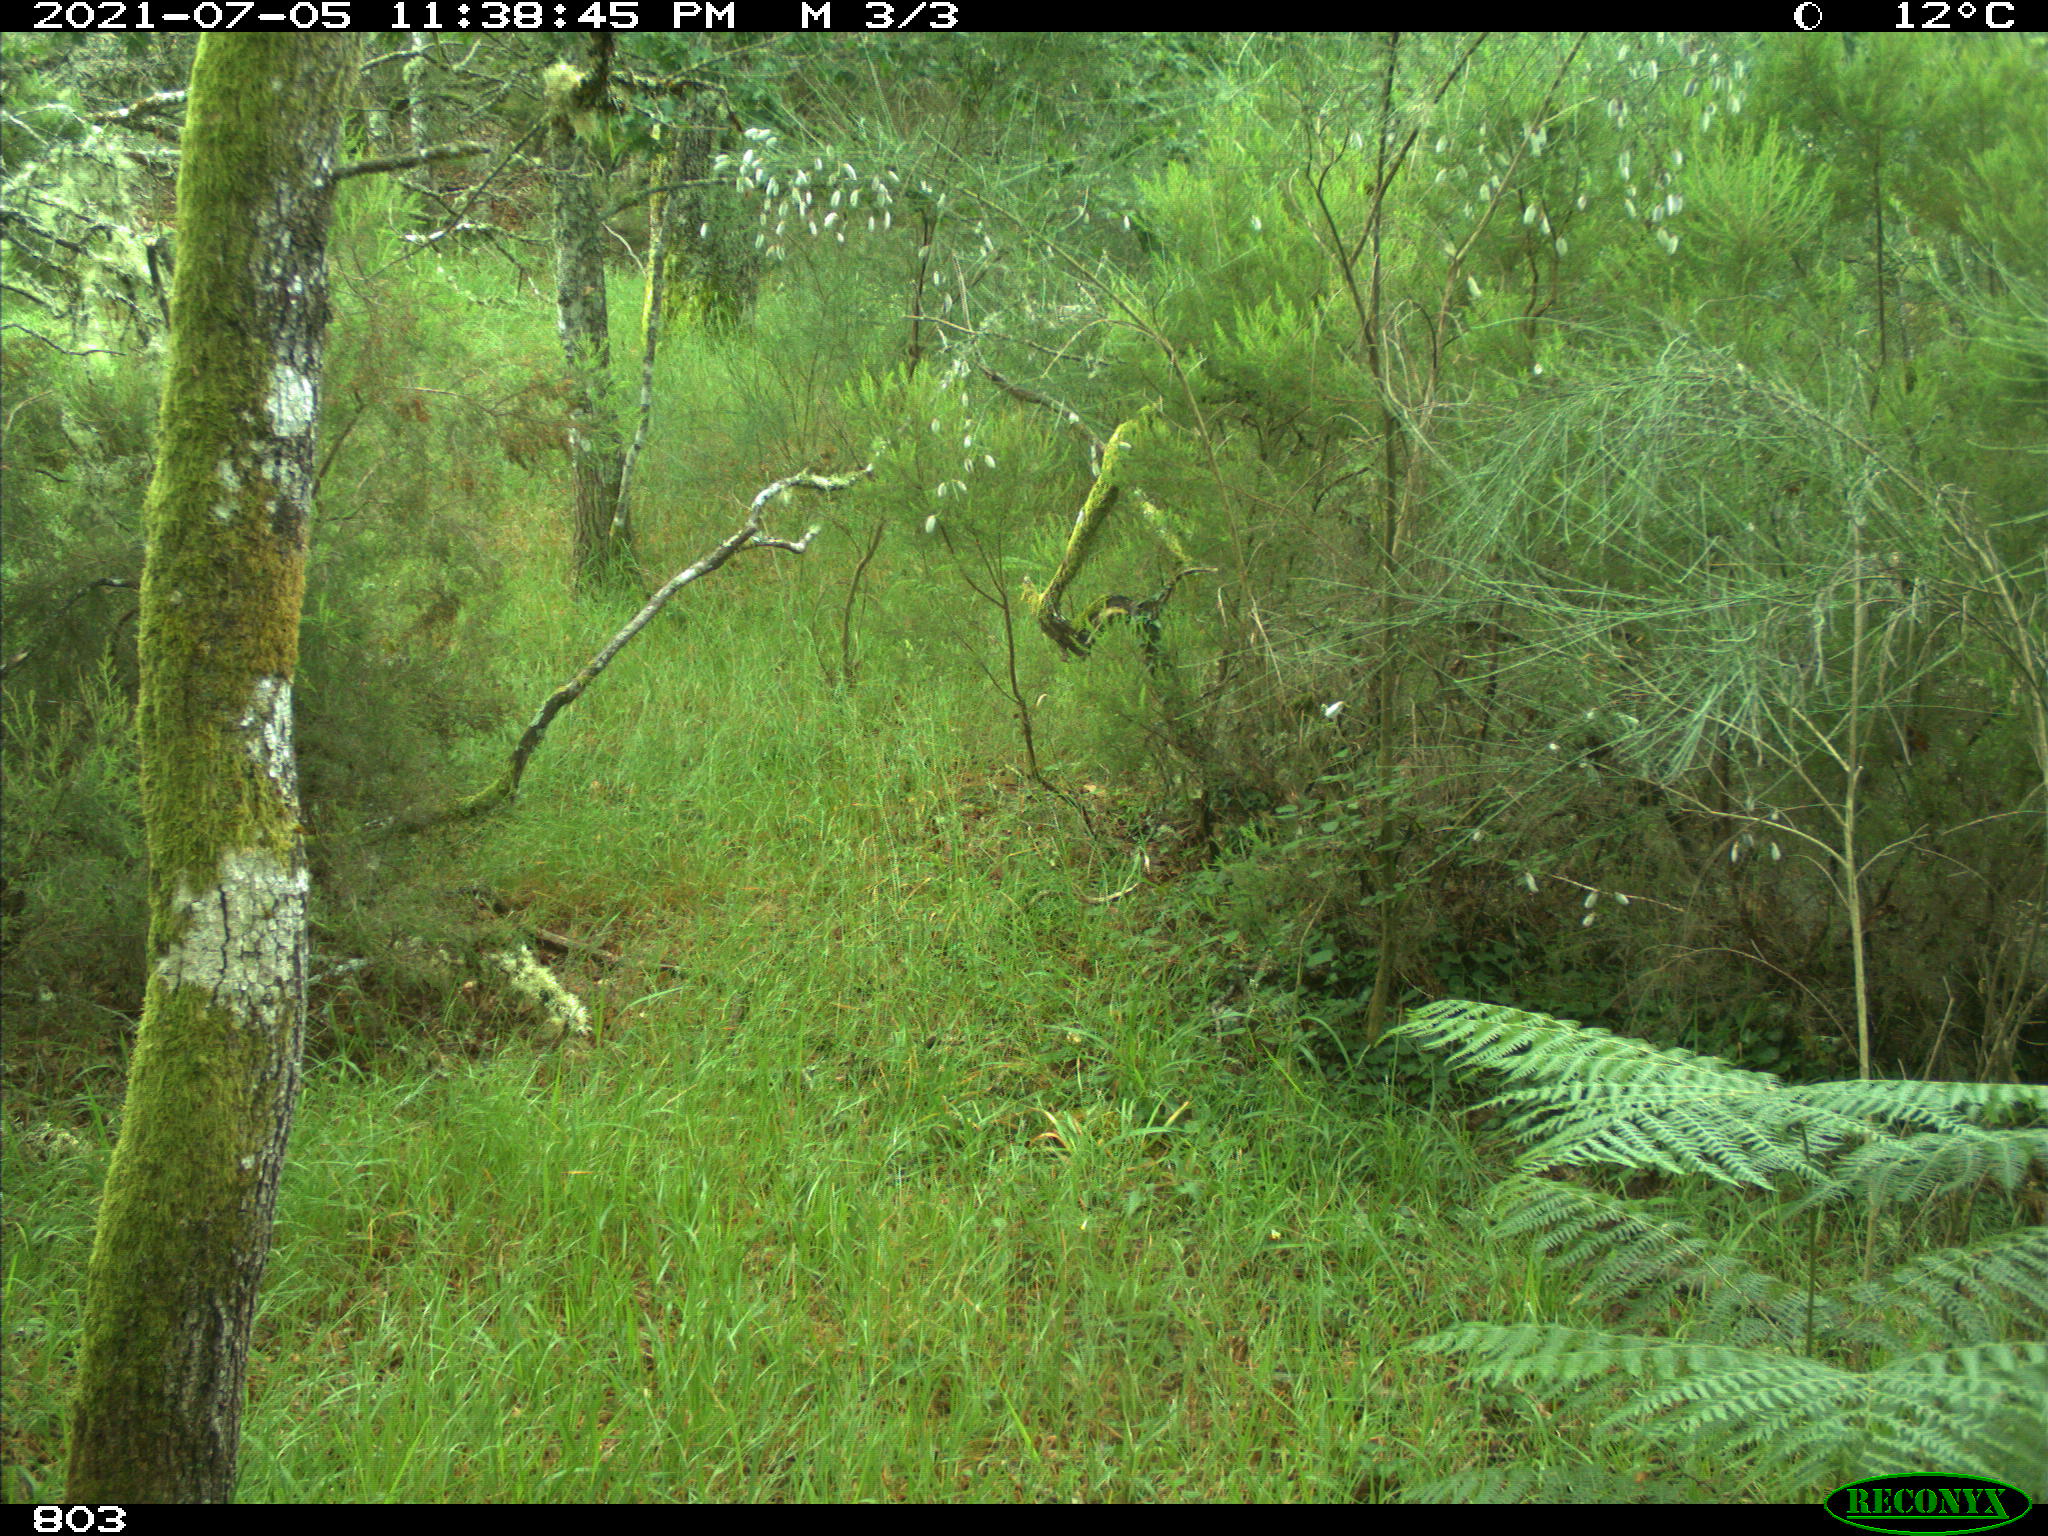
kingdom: Animalia
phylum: Chordata
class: Mammalia
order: Artiodactyla
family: Suidae
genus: Sus
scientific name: Sus scrofa
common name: Wild boar
